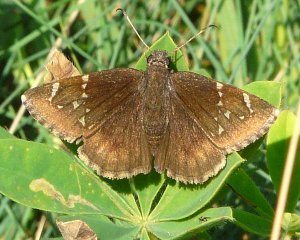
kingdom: Animalia
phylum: Arthropoda
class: Insecta
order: Lepidoptera
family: Hesperiidae
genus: Autochton
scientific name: Autochton
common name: Northern Cloudywing
